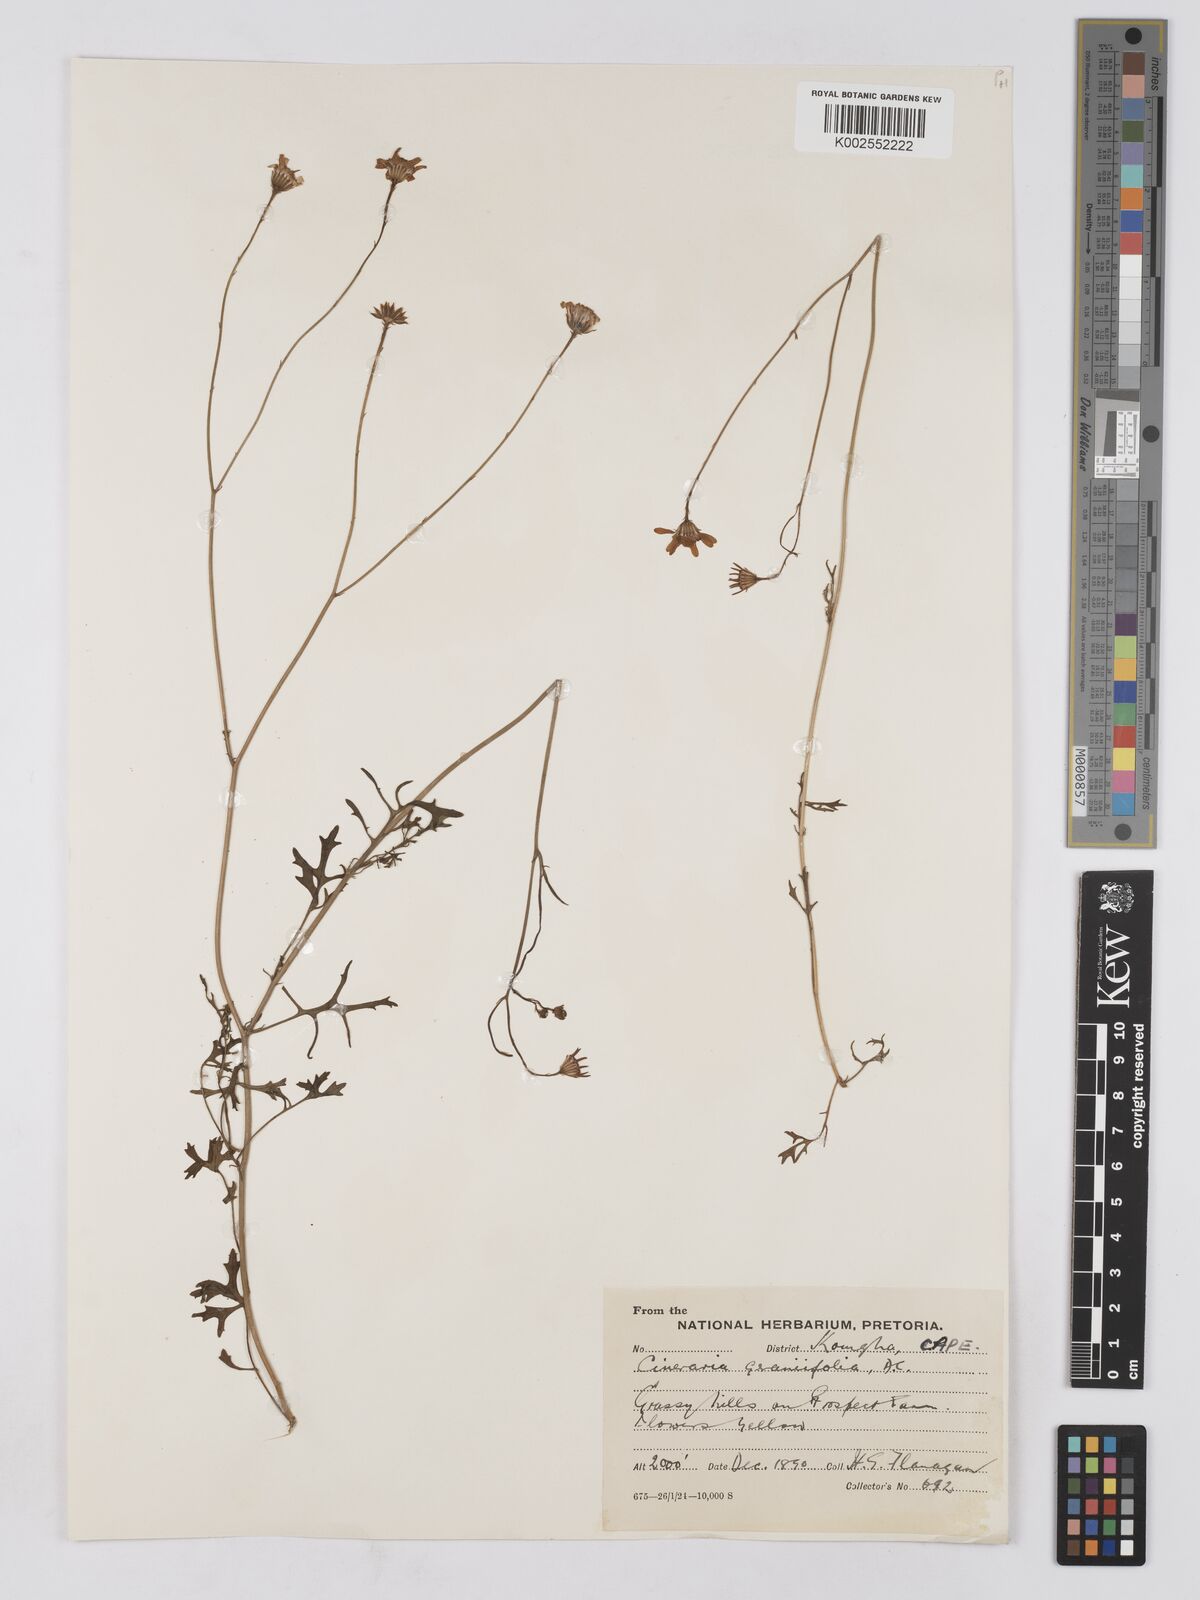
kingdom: Plantae
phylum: Tracheophyta
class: Magnoliopsida
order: Asterales
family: Asteraceae
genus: Cineraria
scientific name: Cineraria geraniifolia
